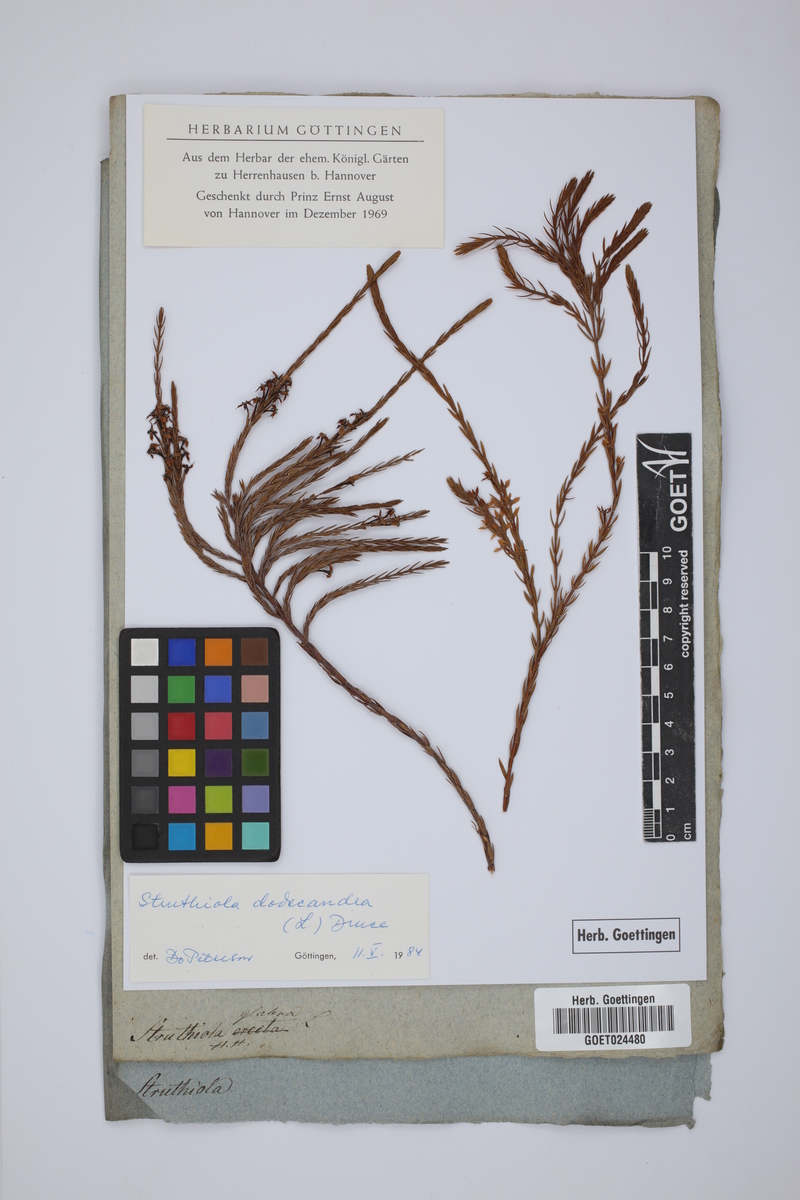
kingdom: Plantae
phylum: Tracheophyta
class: Magnoliopsida
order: Malvales
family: Thymelaeaceae
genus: Struthiola
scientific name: Struthiola dodecandra
